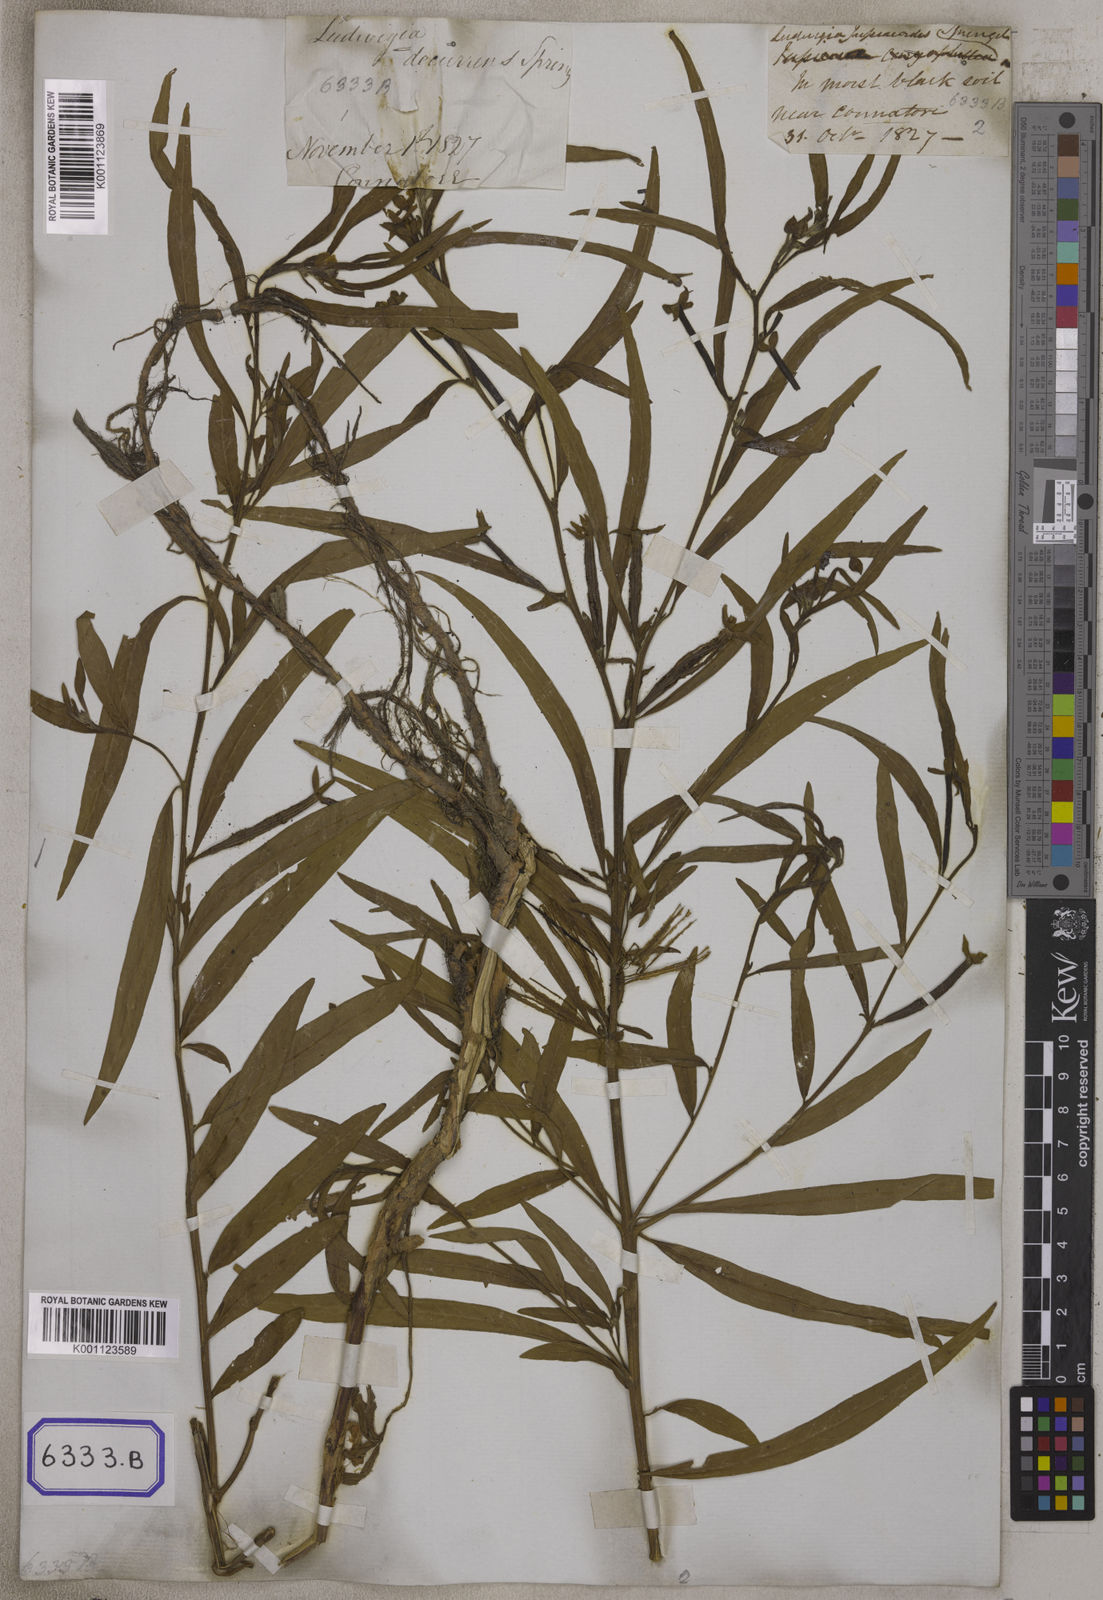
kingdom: Plantae
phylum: Tracheophyta
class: Magnoliopsida
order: Myrtales
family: Onagraceae
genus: Ludwigia
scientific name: Ludwigia octovalvis
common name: Water-primrose
